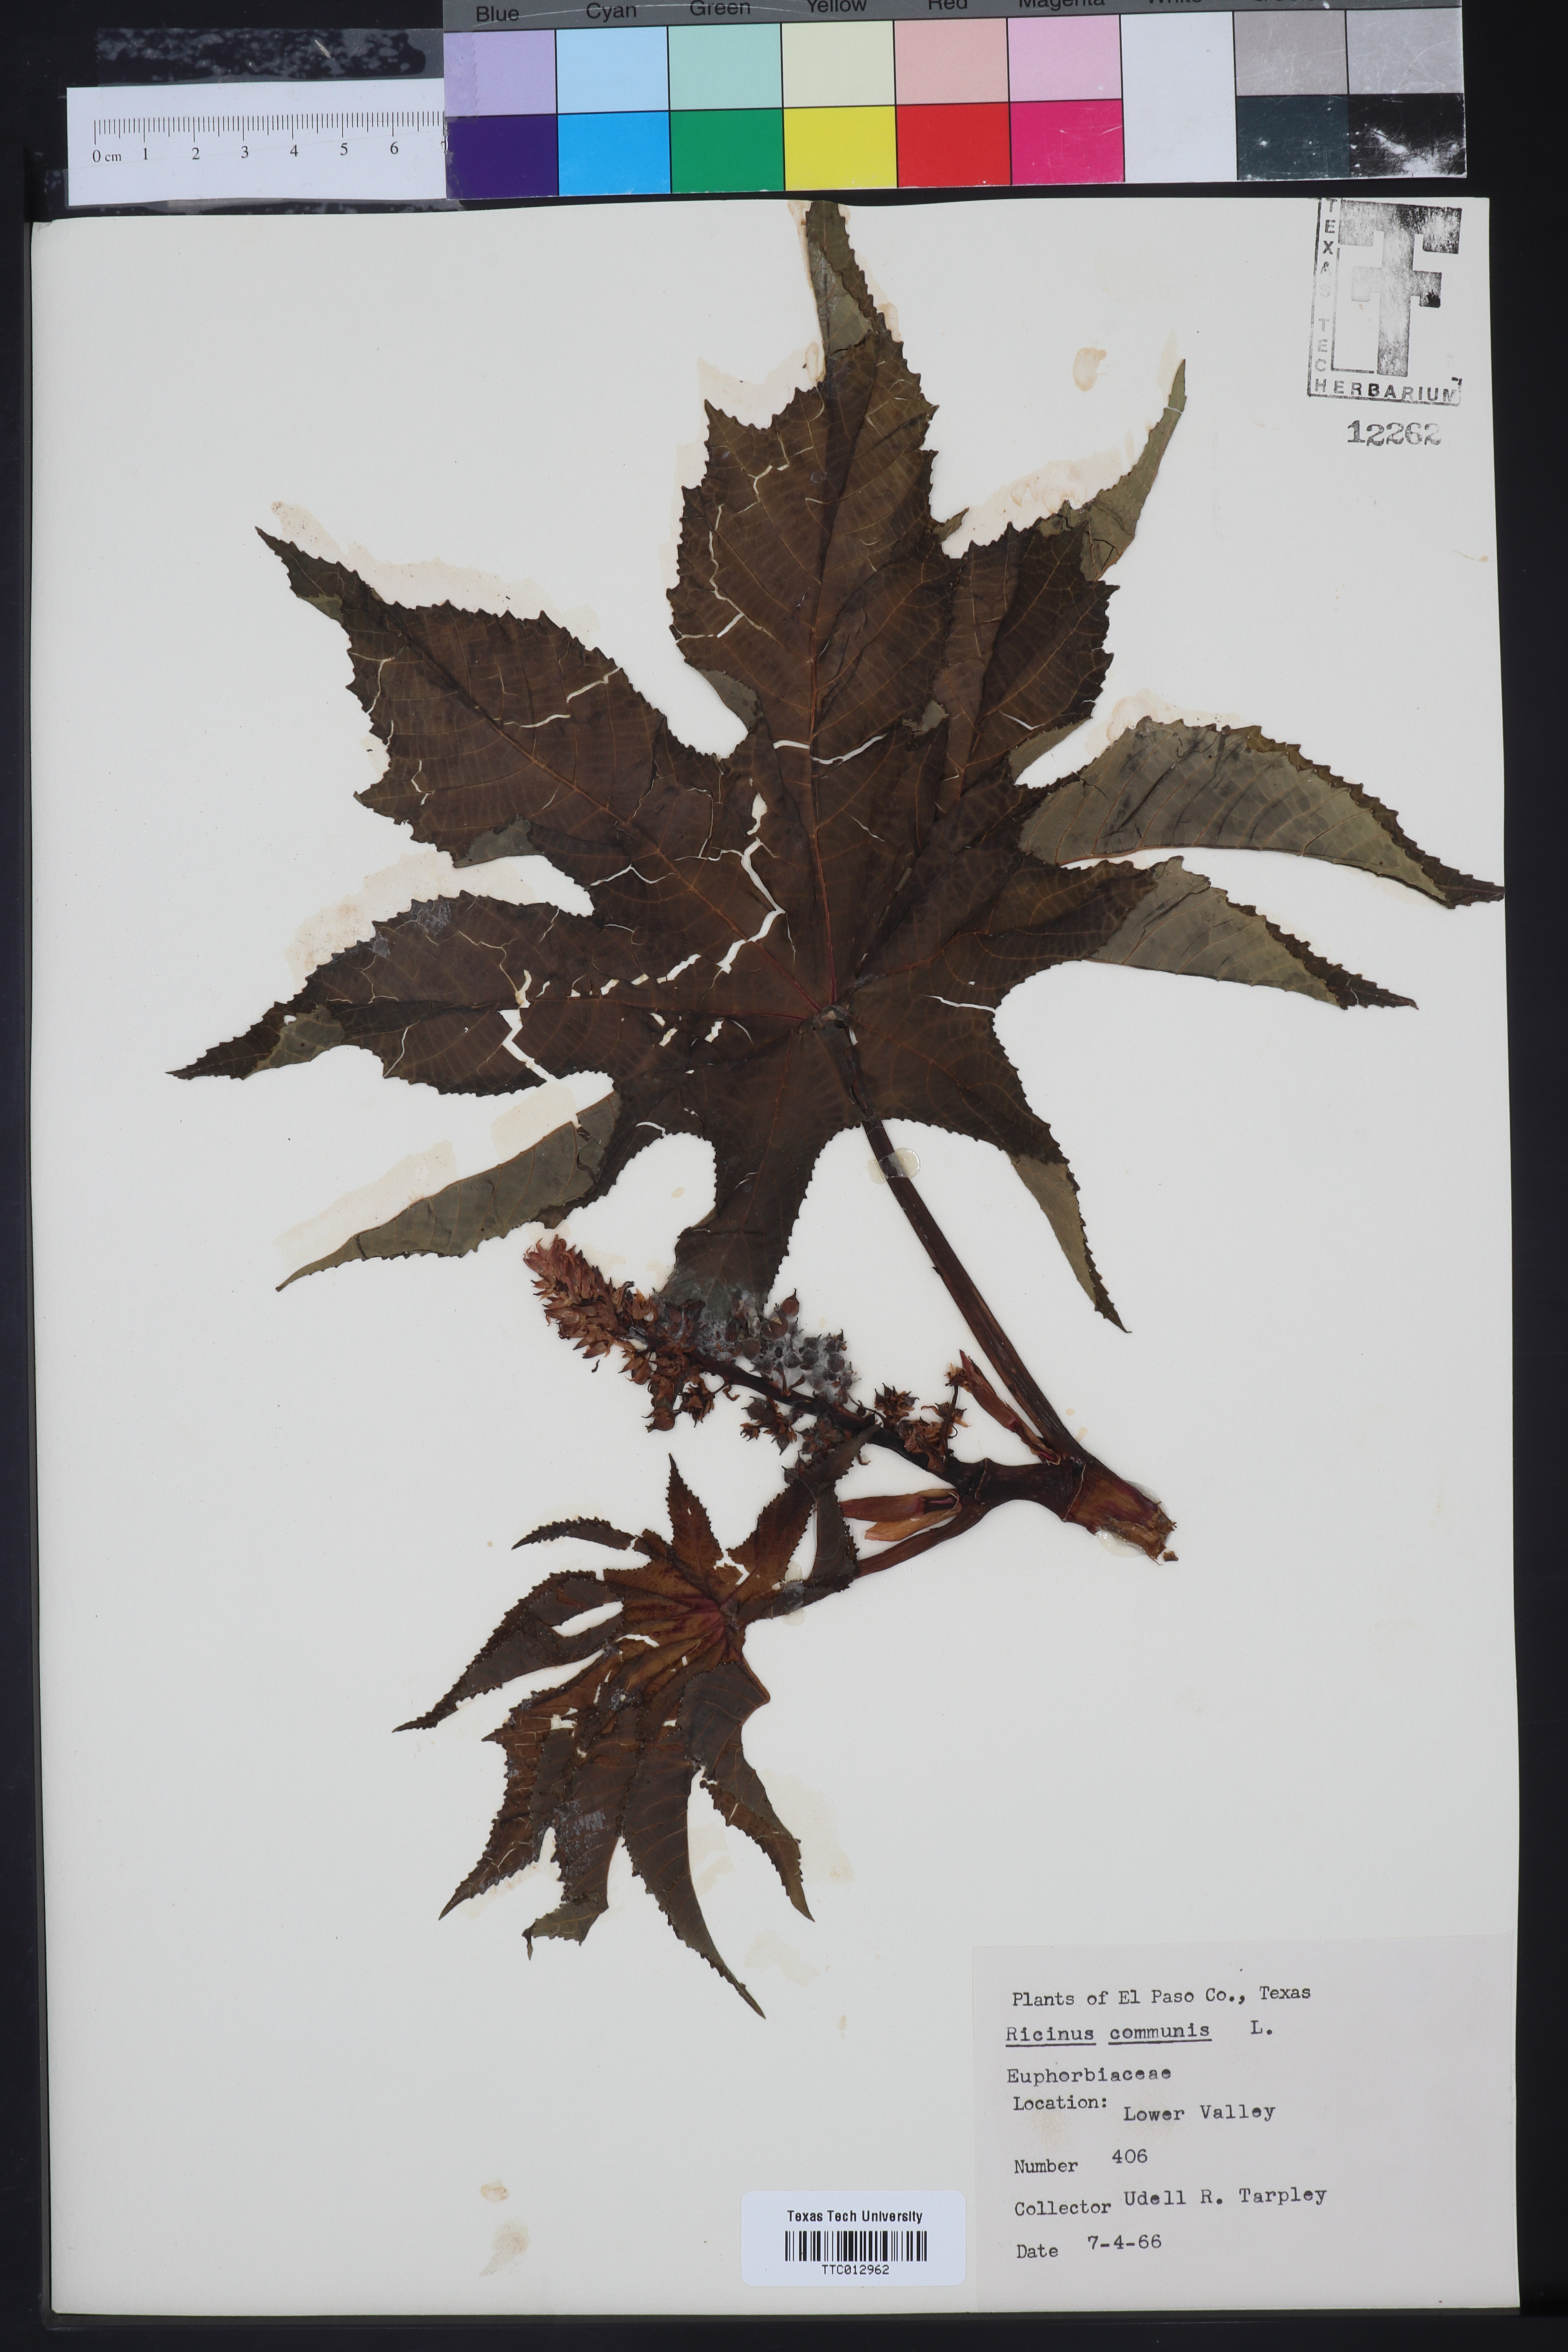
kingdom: Plantae
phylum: Tracheophyta
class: Magnoliopsida
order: Malpighiales
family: Euphorbiaceae
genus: Ricinus
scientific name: Ricinus communis
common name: Castor-oil-plant
